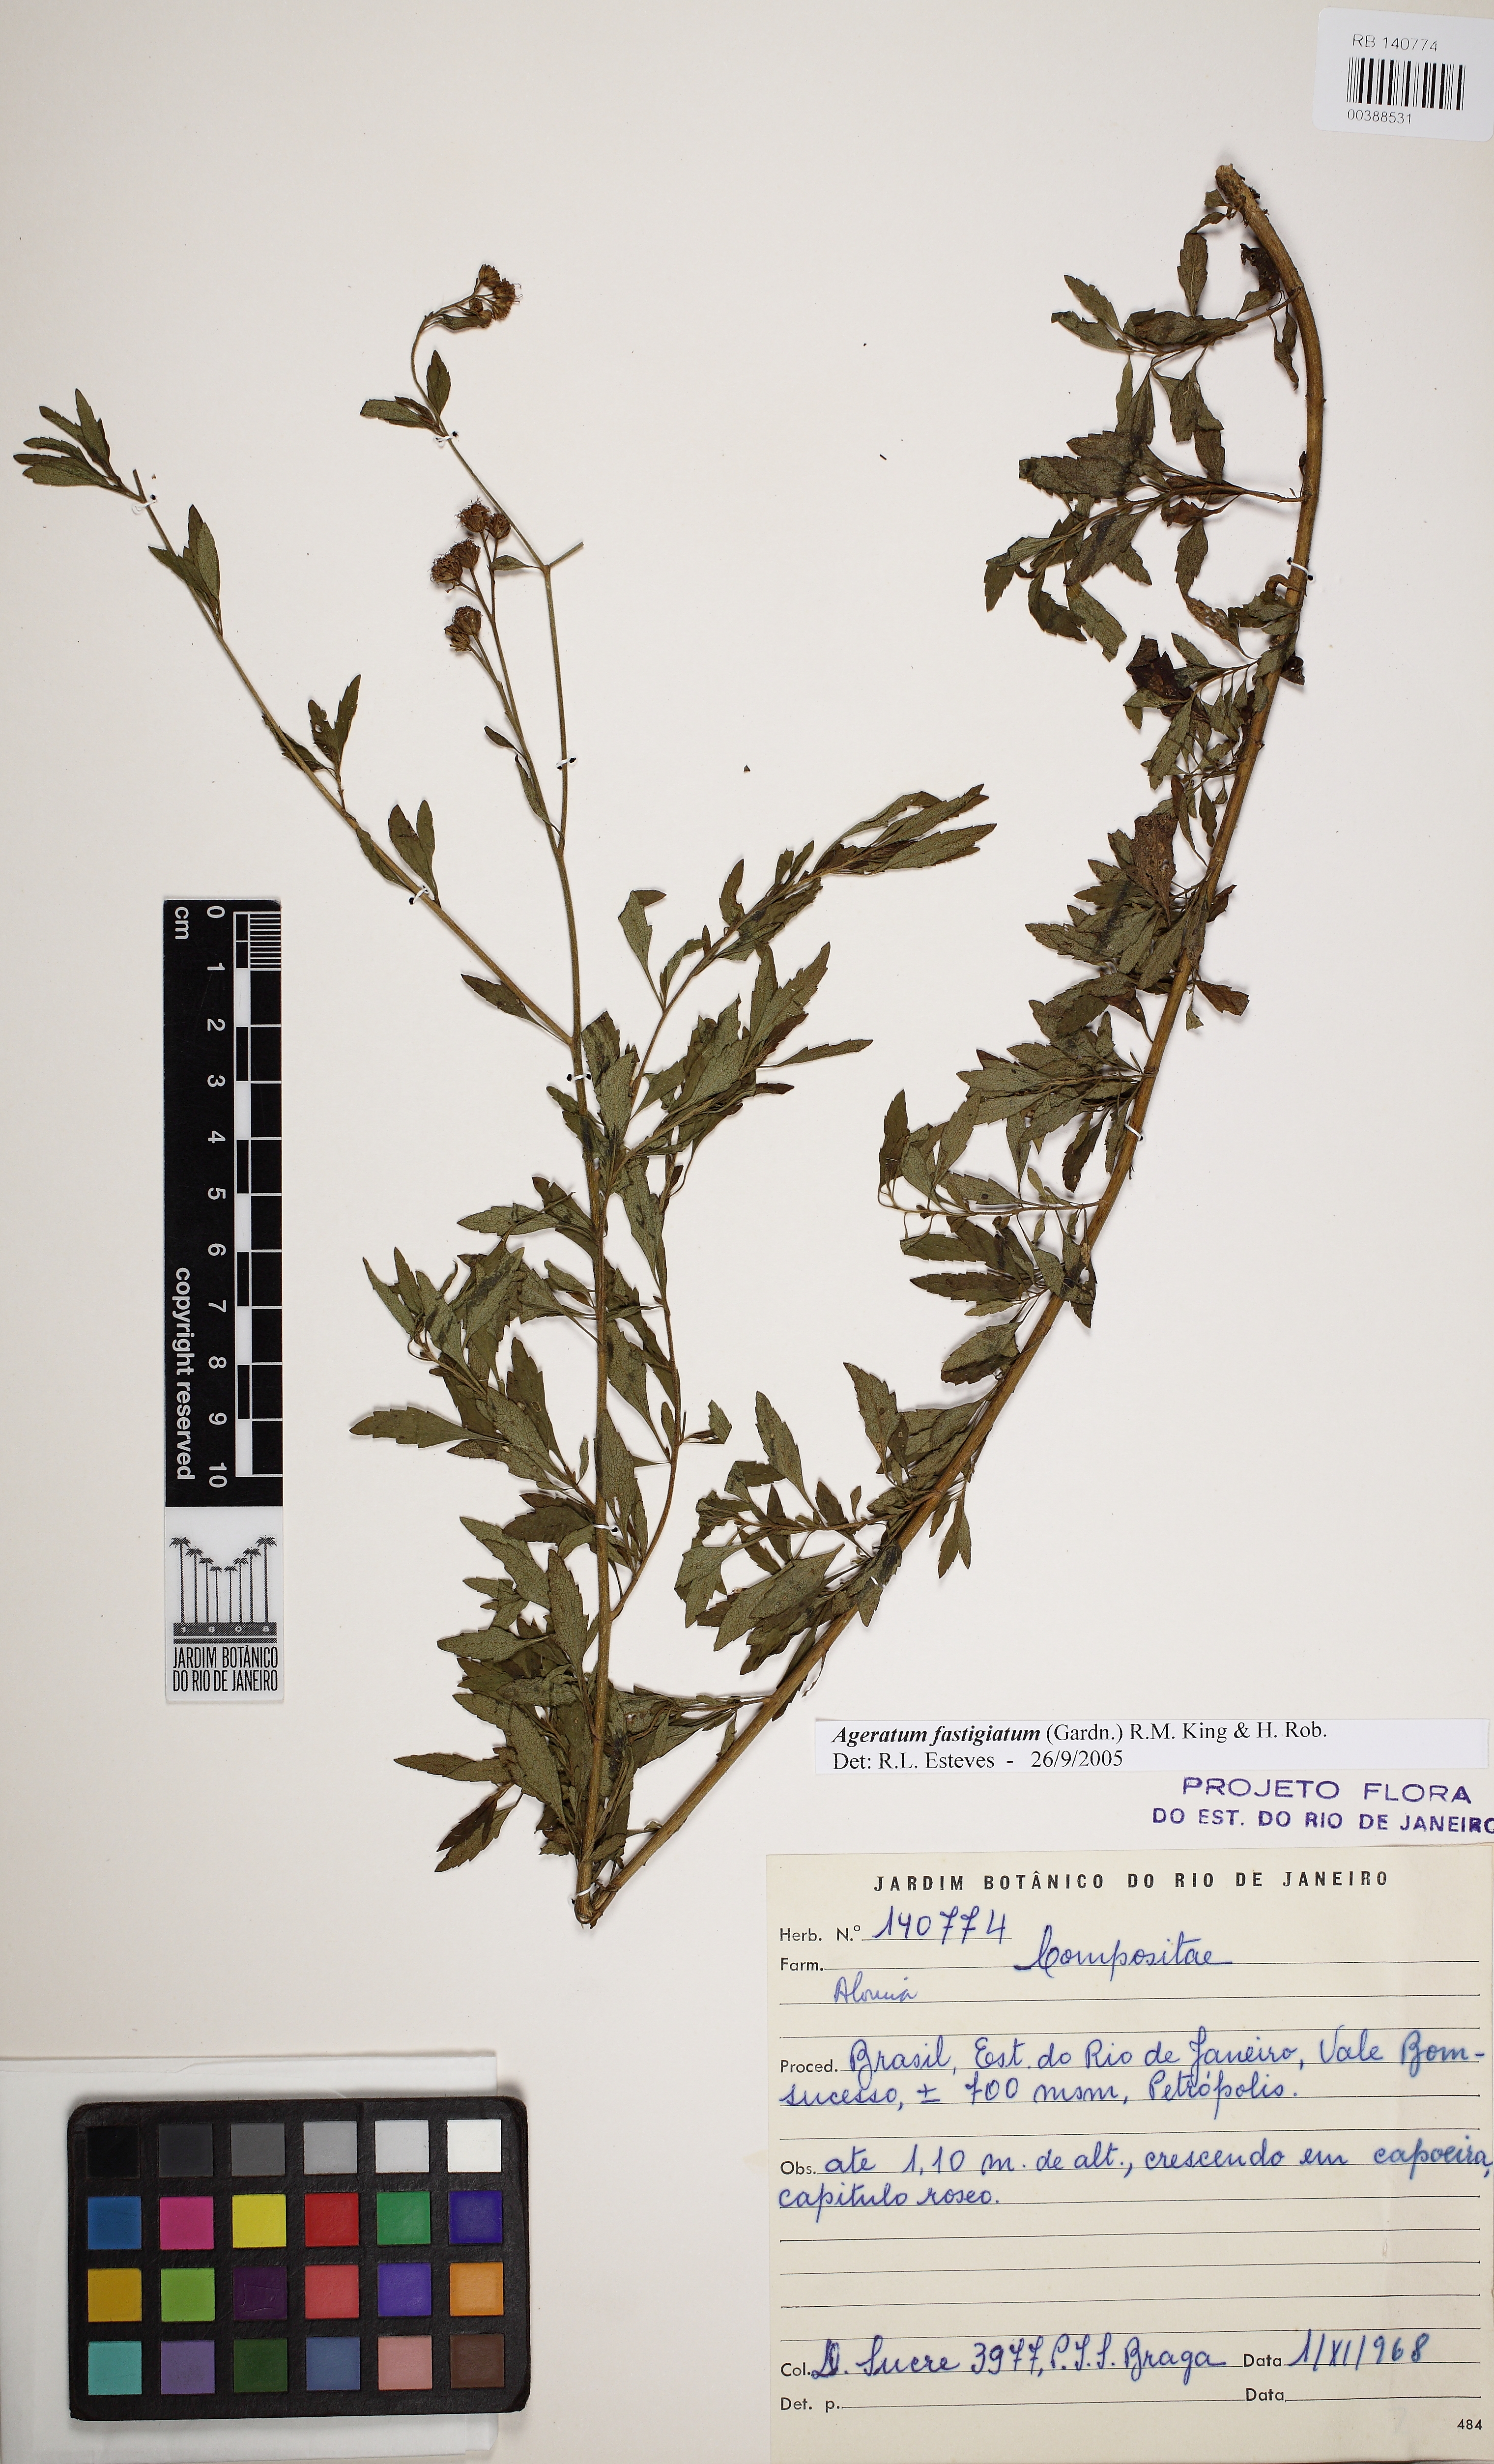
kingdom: Plantae
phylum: Tracheophyta
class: Magnoliopsida
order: Asterales
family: Asteraceae
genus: Ageratum
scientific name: Ageratum fastigiatum
